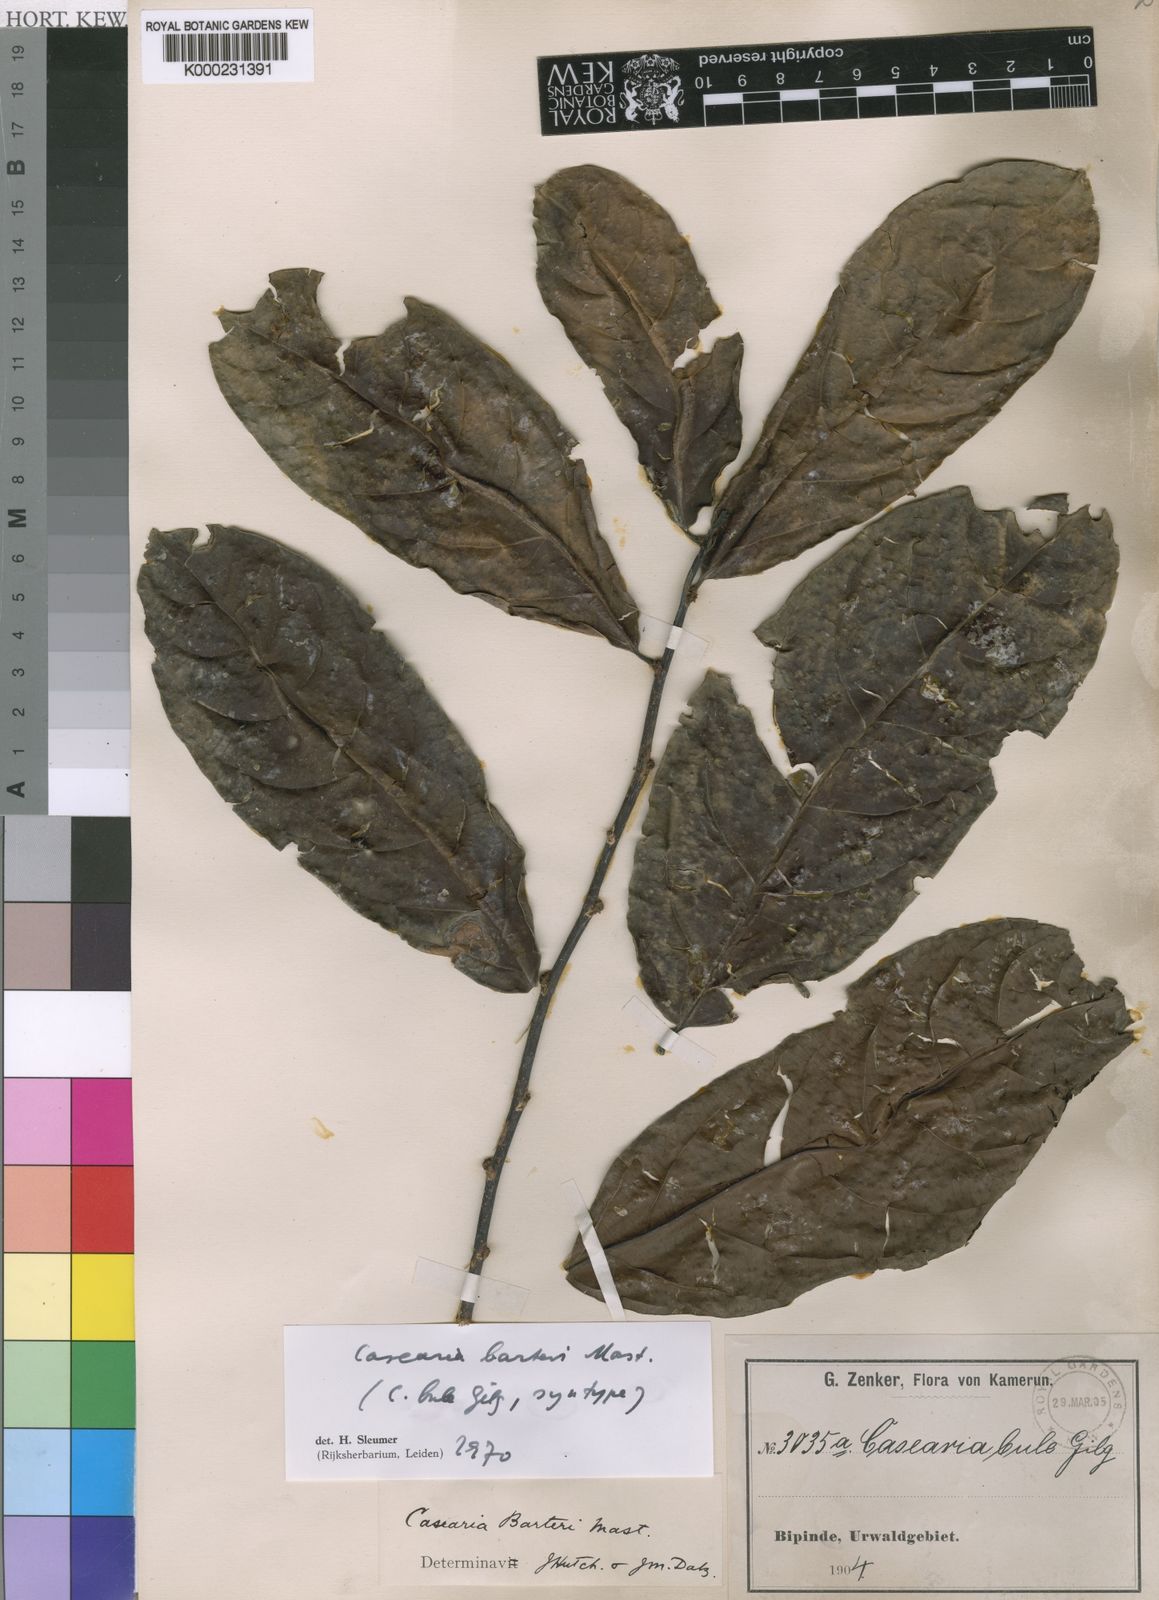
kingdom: Plantae
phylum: Tracheophyta
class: Magnoliopsida
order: Malpighiales
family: Salicaceae
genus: Casearia
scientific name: Casearia barteri
